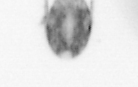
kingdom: Animalia
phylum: Arthropoda
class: Copepoda
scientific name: Copepoda
